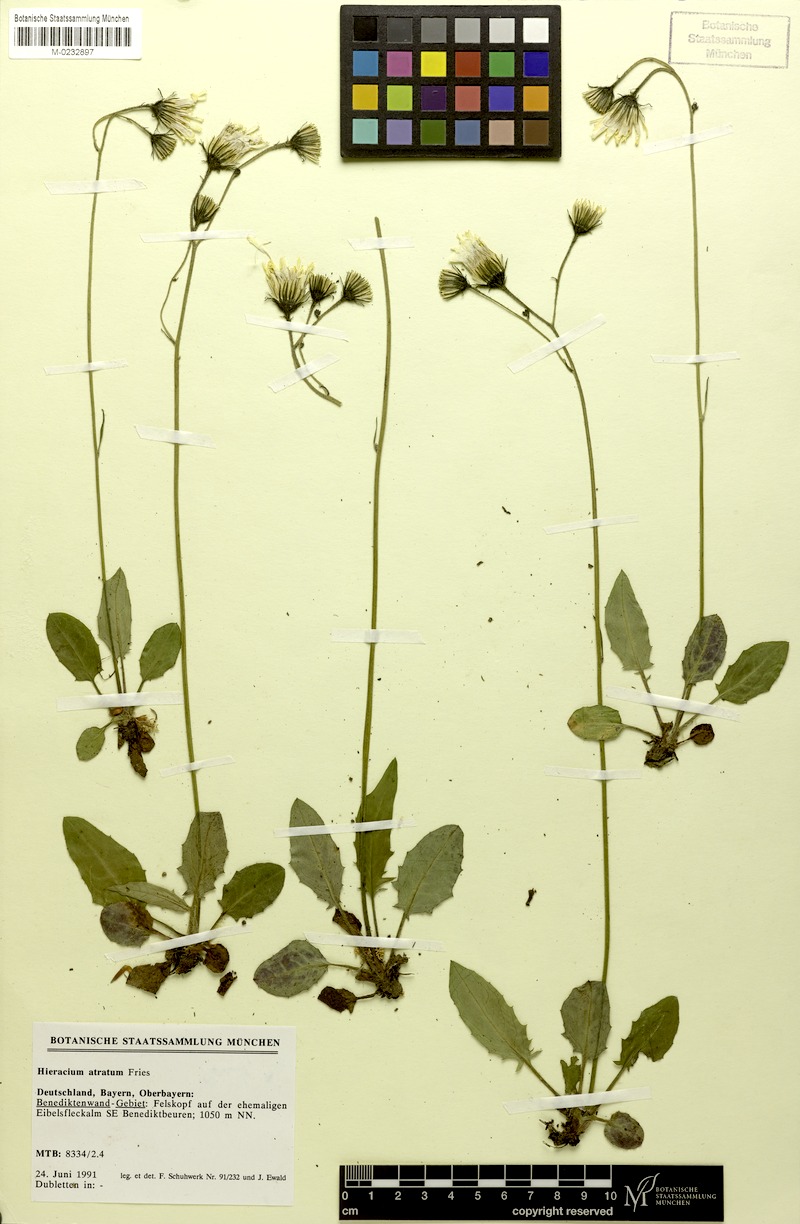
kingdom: Plantae
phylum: Tracheophyta
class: Magnoliopsida
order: Asterales
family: Asteraceae
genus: Hieracium
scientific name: Hieracium atratum
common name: Polar hawkweed
